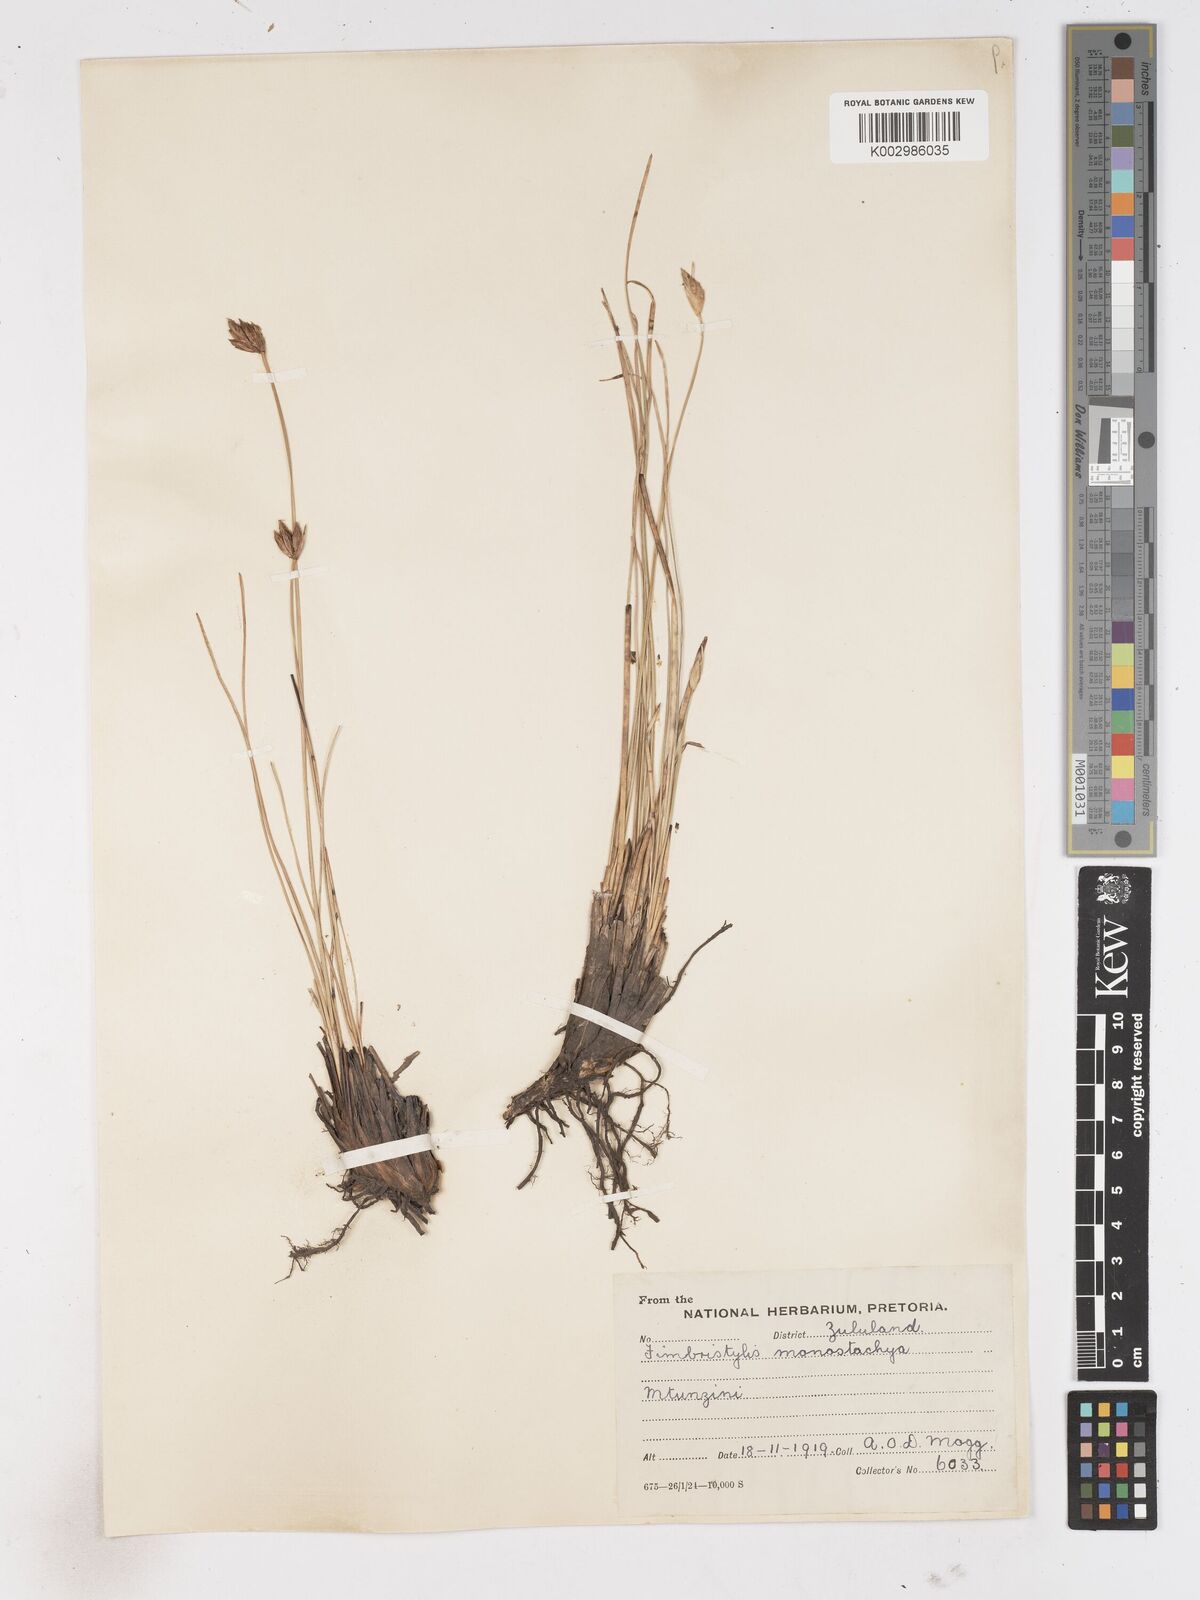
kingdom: Plantae
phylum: Tracheophyta
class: Liliopsida
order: Poales
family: Cyperaceae
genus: Abildgaardia
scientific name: Abildgaardia triflora
